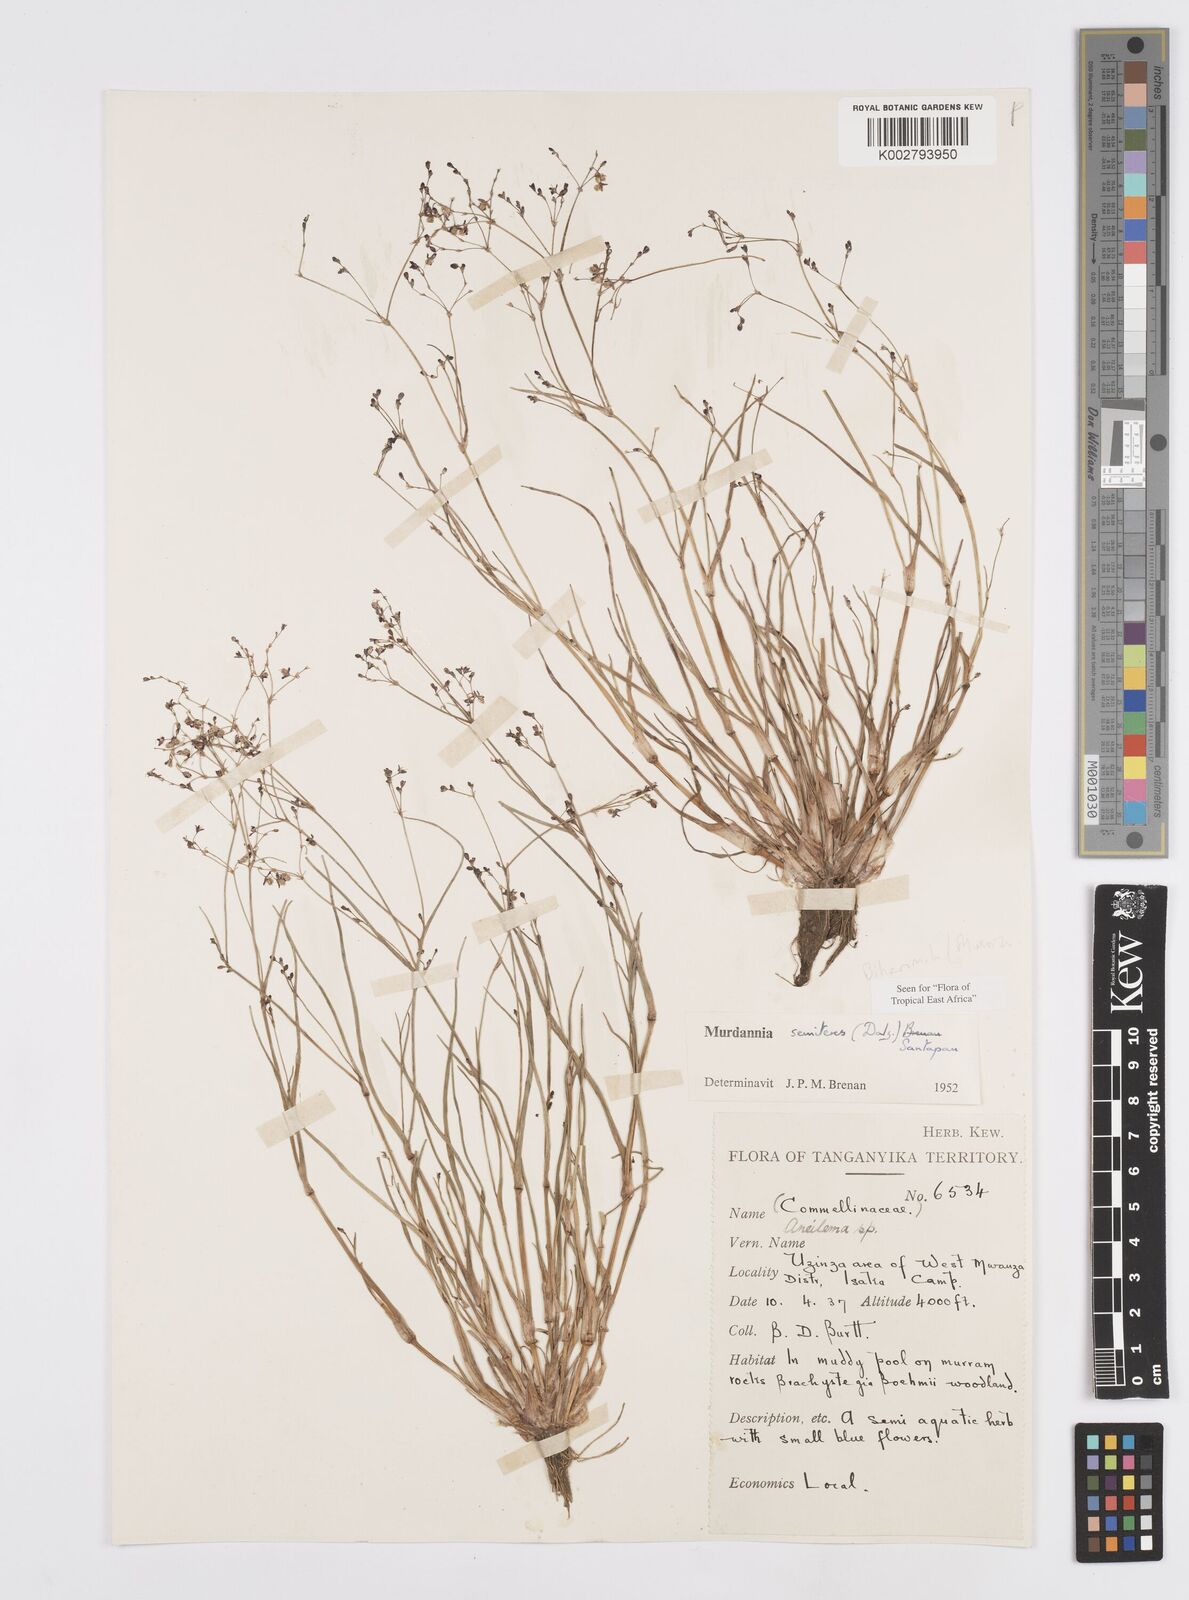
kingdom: Plantae
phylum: Tracheophyta
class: Liliopsida
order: Commelinales
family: Commelinaceae
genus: Murdannia
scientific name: Murdannia semiteres
